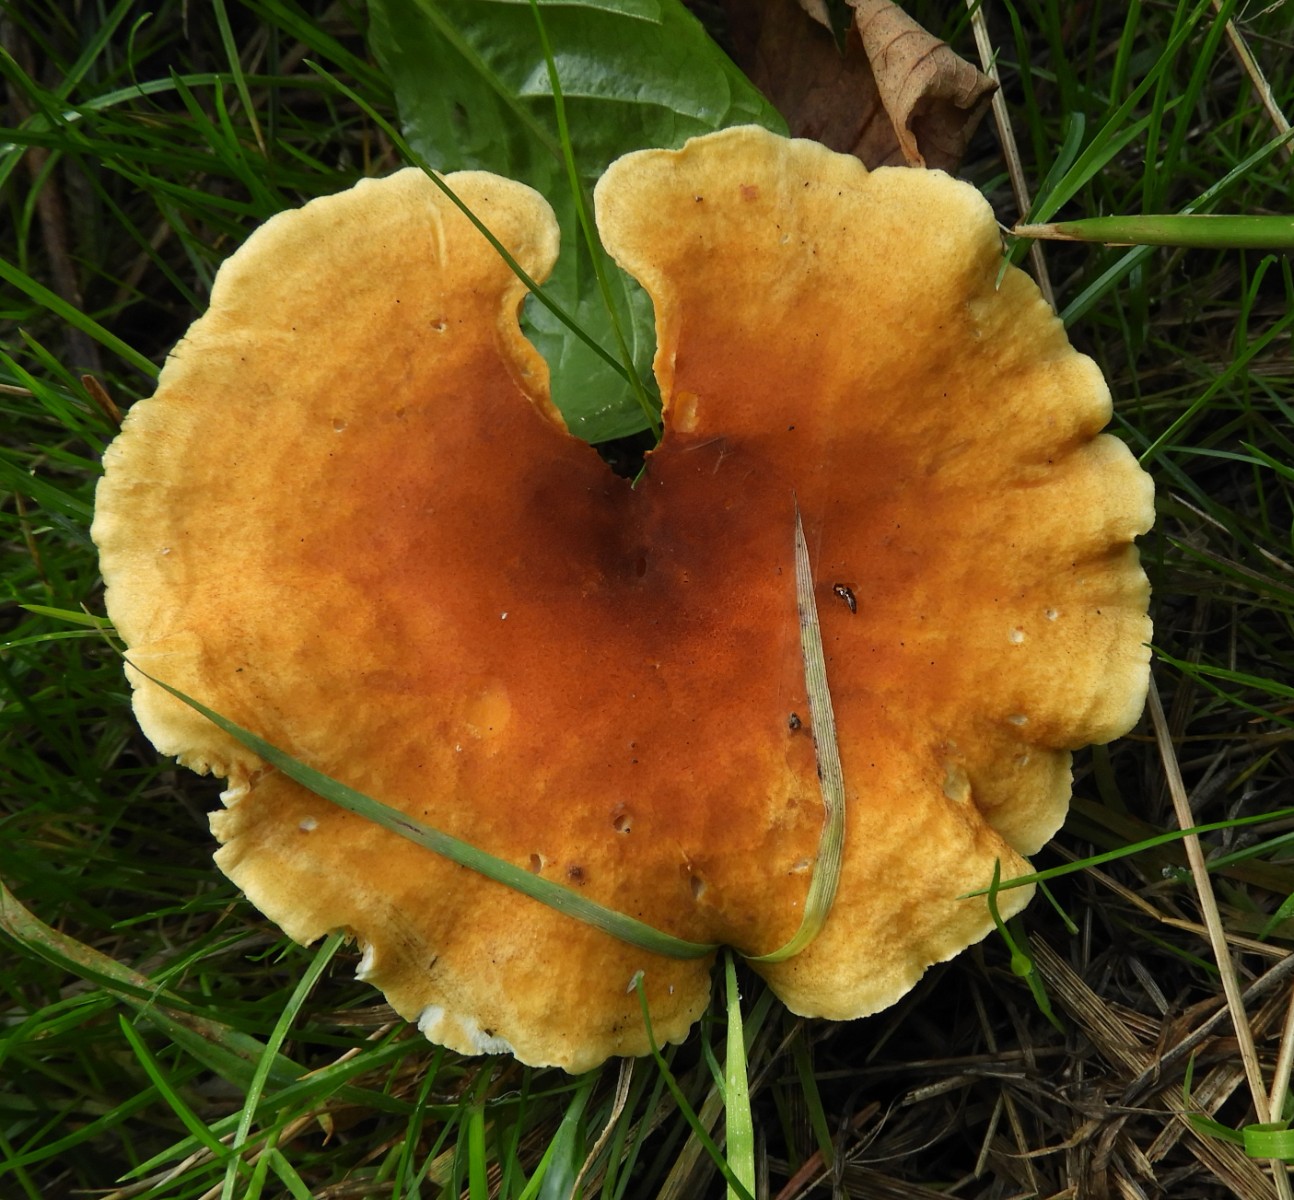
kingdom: Fungi
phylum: Basidiomycota
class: Agaricomycetes
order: Boletales
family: Hygrophoropsidaceae
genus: Hygrophoropsis
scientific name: Hygrophoropsis aurantiaca
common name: almindelig orangekantarel
